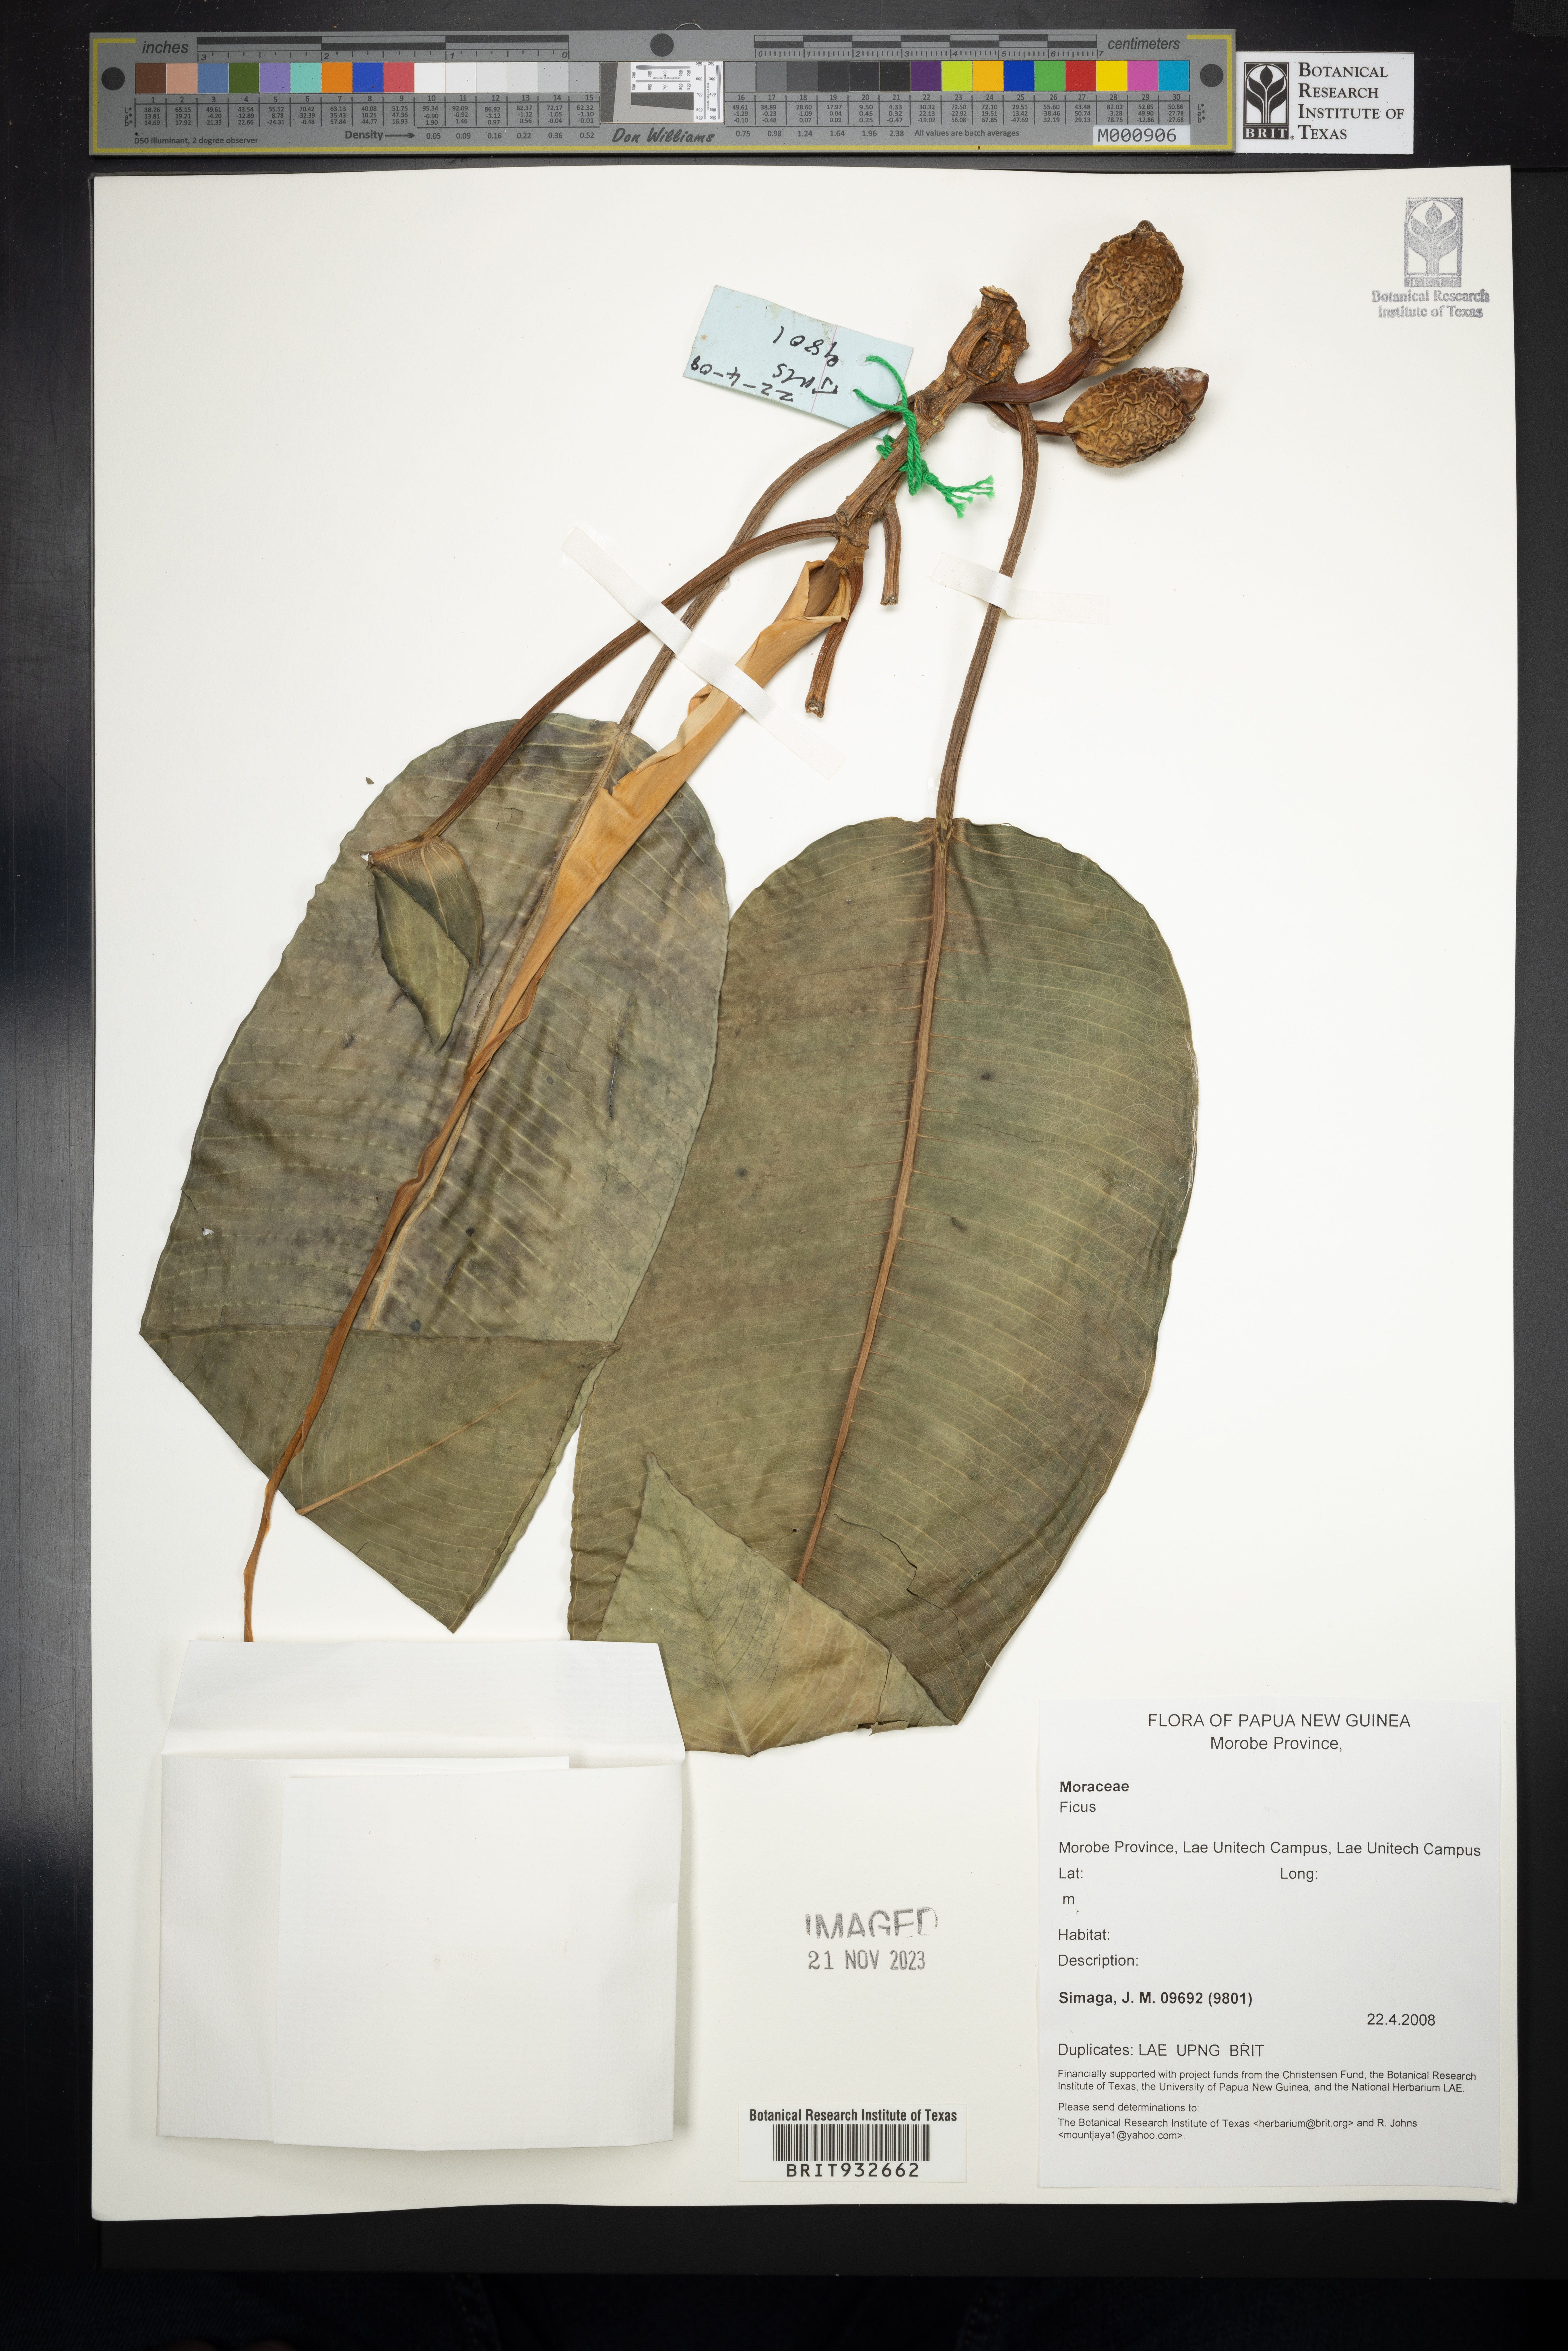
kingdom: Plantae
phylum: Tracheophyta
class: Magnoliopsida
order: Rosales
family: Moraceae
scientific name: Moraceae
